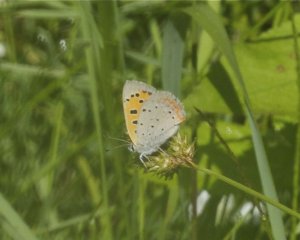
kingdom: Animalia
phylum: Arthropoda
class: Insecta
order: Lepidoptera
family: Lycaenidae
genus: Lycaena
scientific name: Lycaena phlaeas
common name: American Copper
